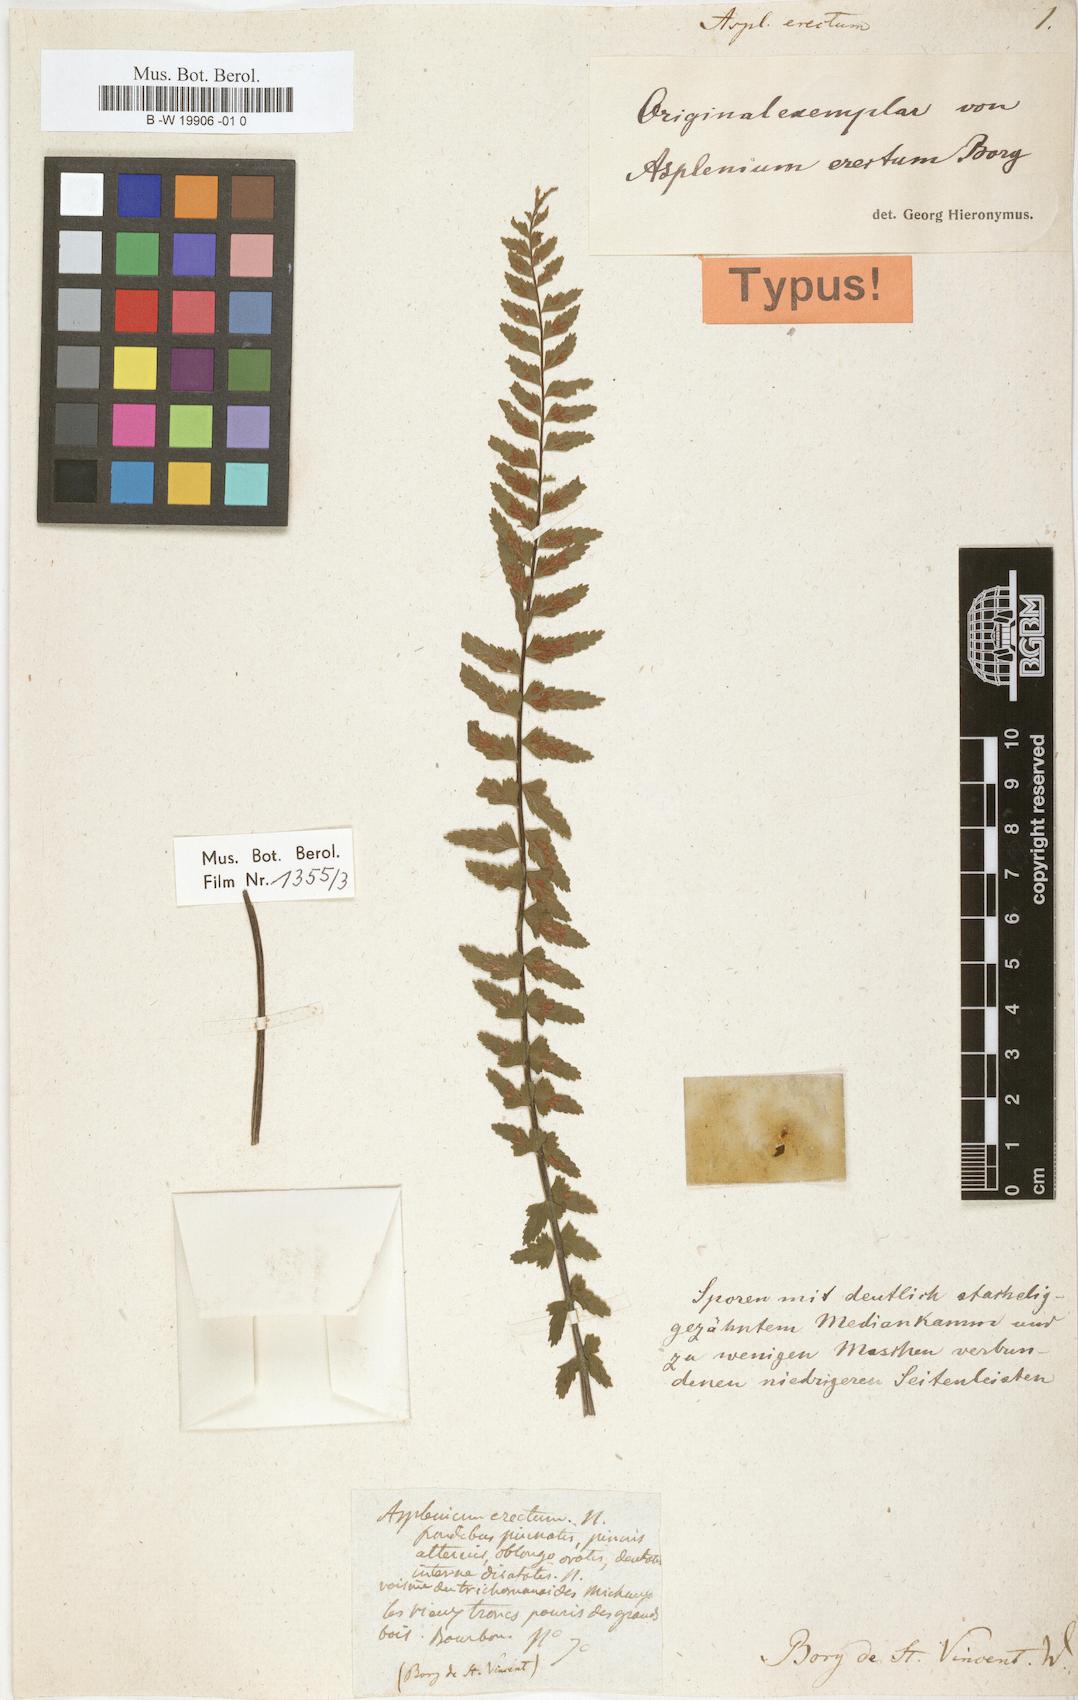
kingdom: Plantae
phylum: Tracheophyta
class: Polypodiopsida
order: Polypodiales
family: Aspleniaceae
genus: Asplenium
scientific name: Asplenium erectum
